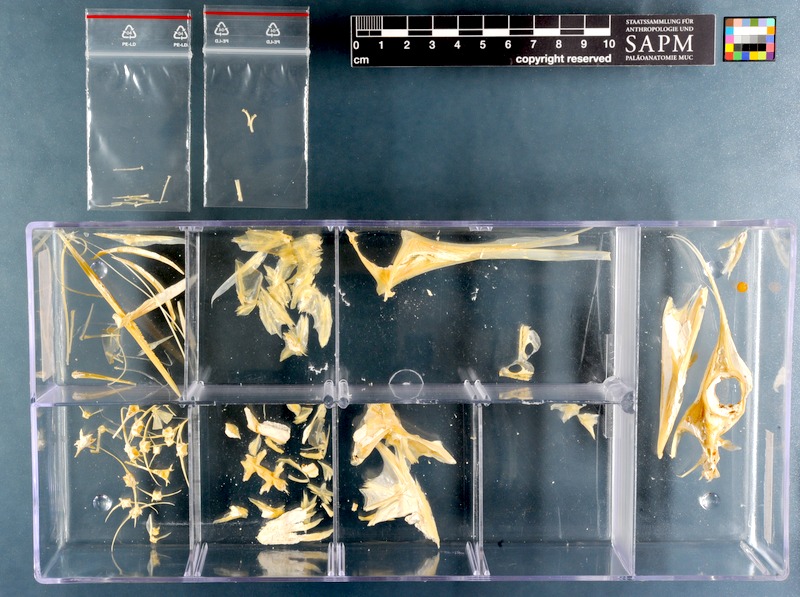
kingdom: Animalia
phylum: Chordata
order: Syngnathiformes
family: Centriscidae
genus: Notopogon
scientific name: Notopogon macrosolen
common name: Longsnout bellowfish
